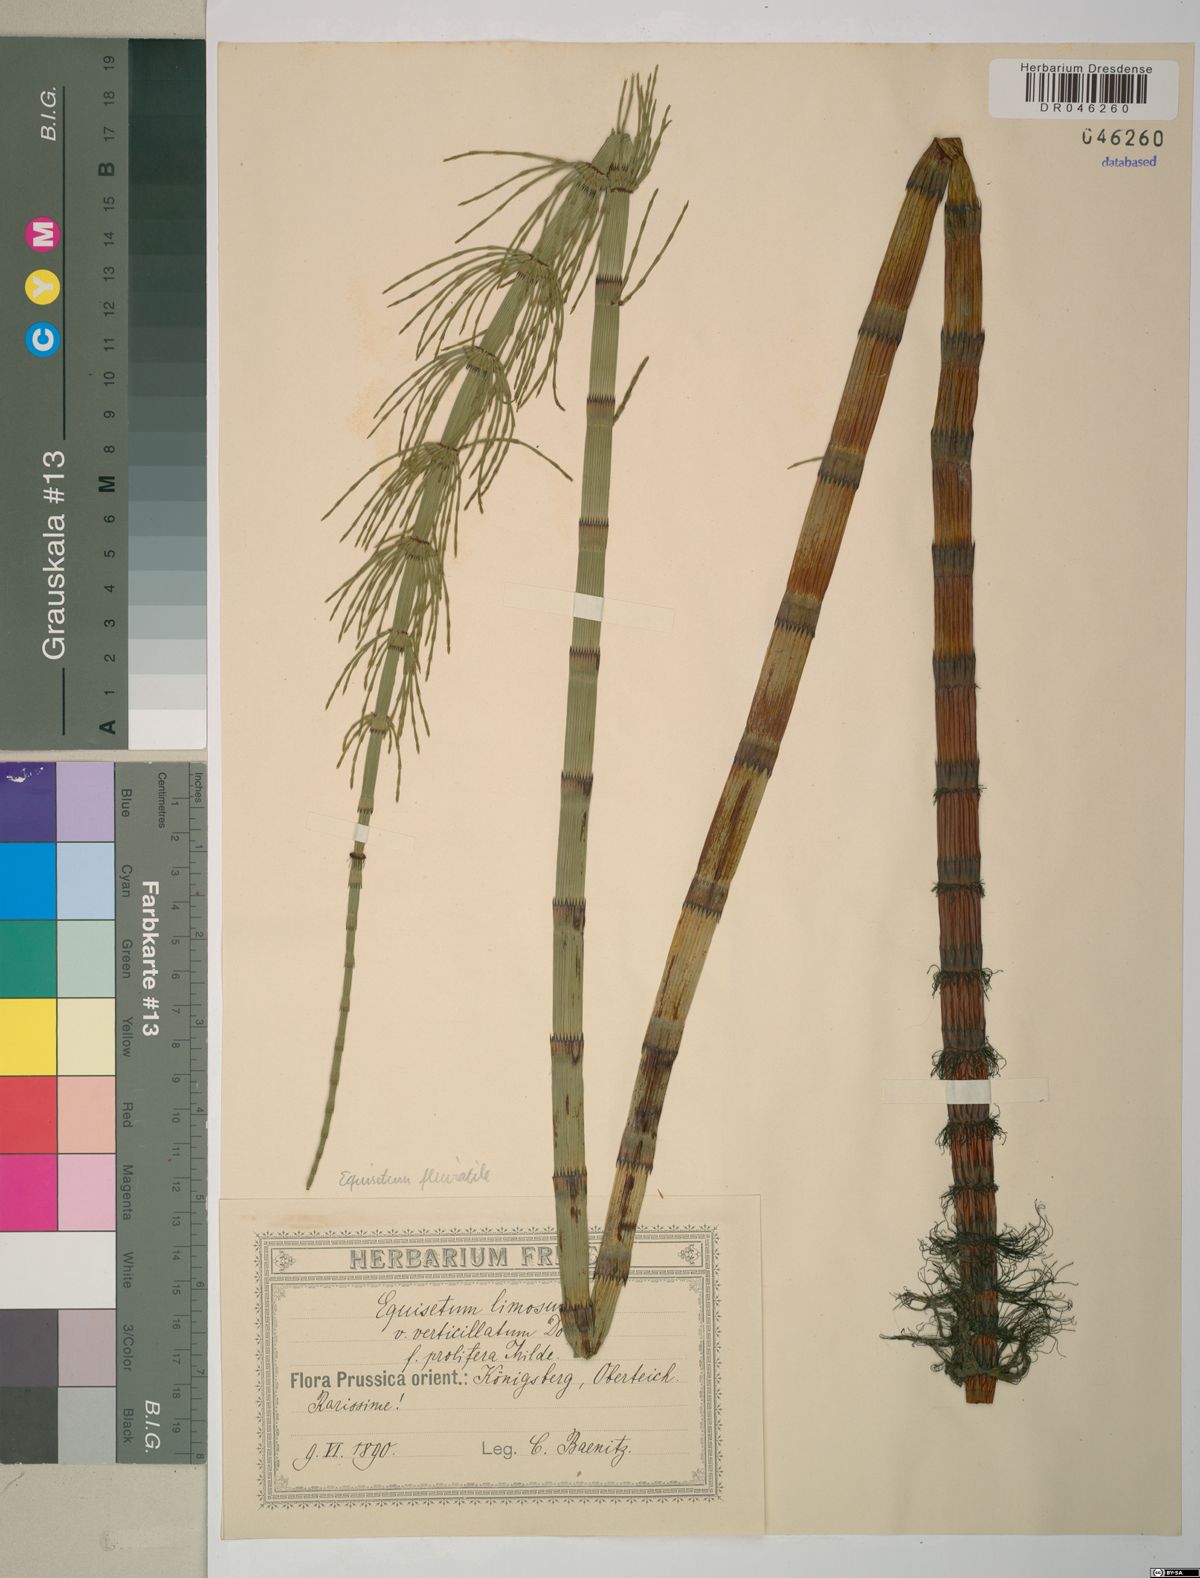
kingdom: Plantae
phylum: Tracheophyta
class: Polypodiopsida
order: Equisetales
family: Equisetaceae
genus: Equisetum
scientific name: Equisetum fluviatile
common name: Water horsetail
